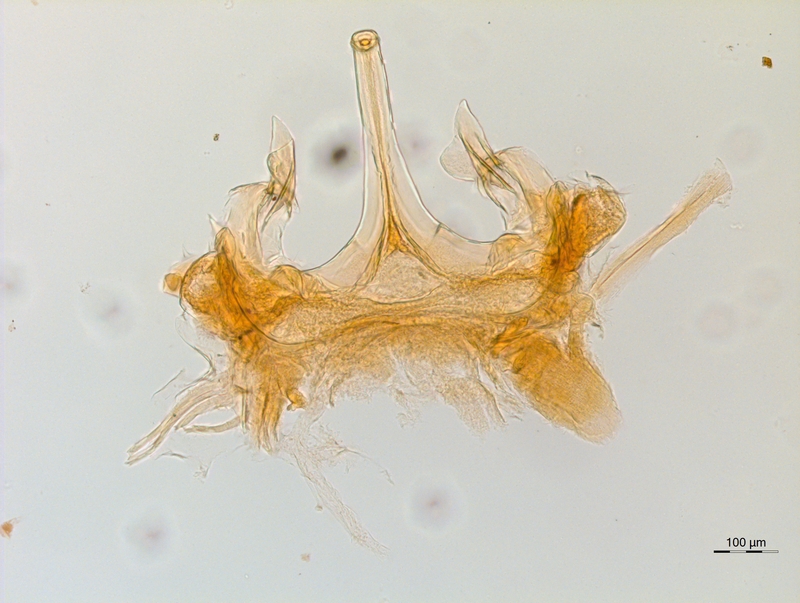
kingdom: Animalia
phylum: Arthropoda
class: Diplopoda
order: Chordeumatida
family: Chordeumatidae
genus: Mycogona
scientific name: Mycogona germanica
